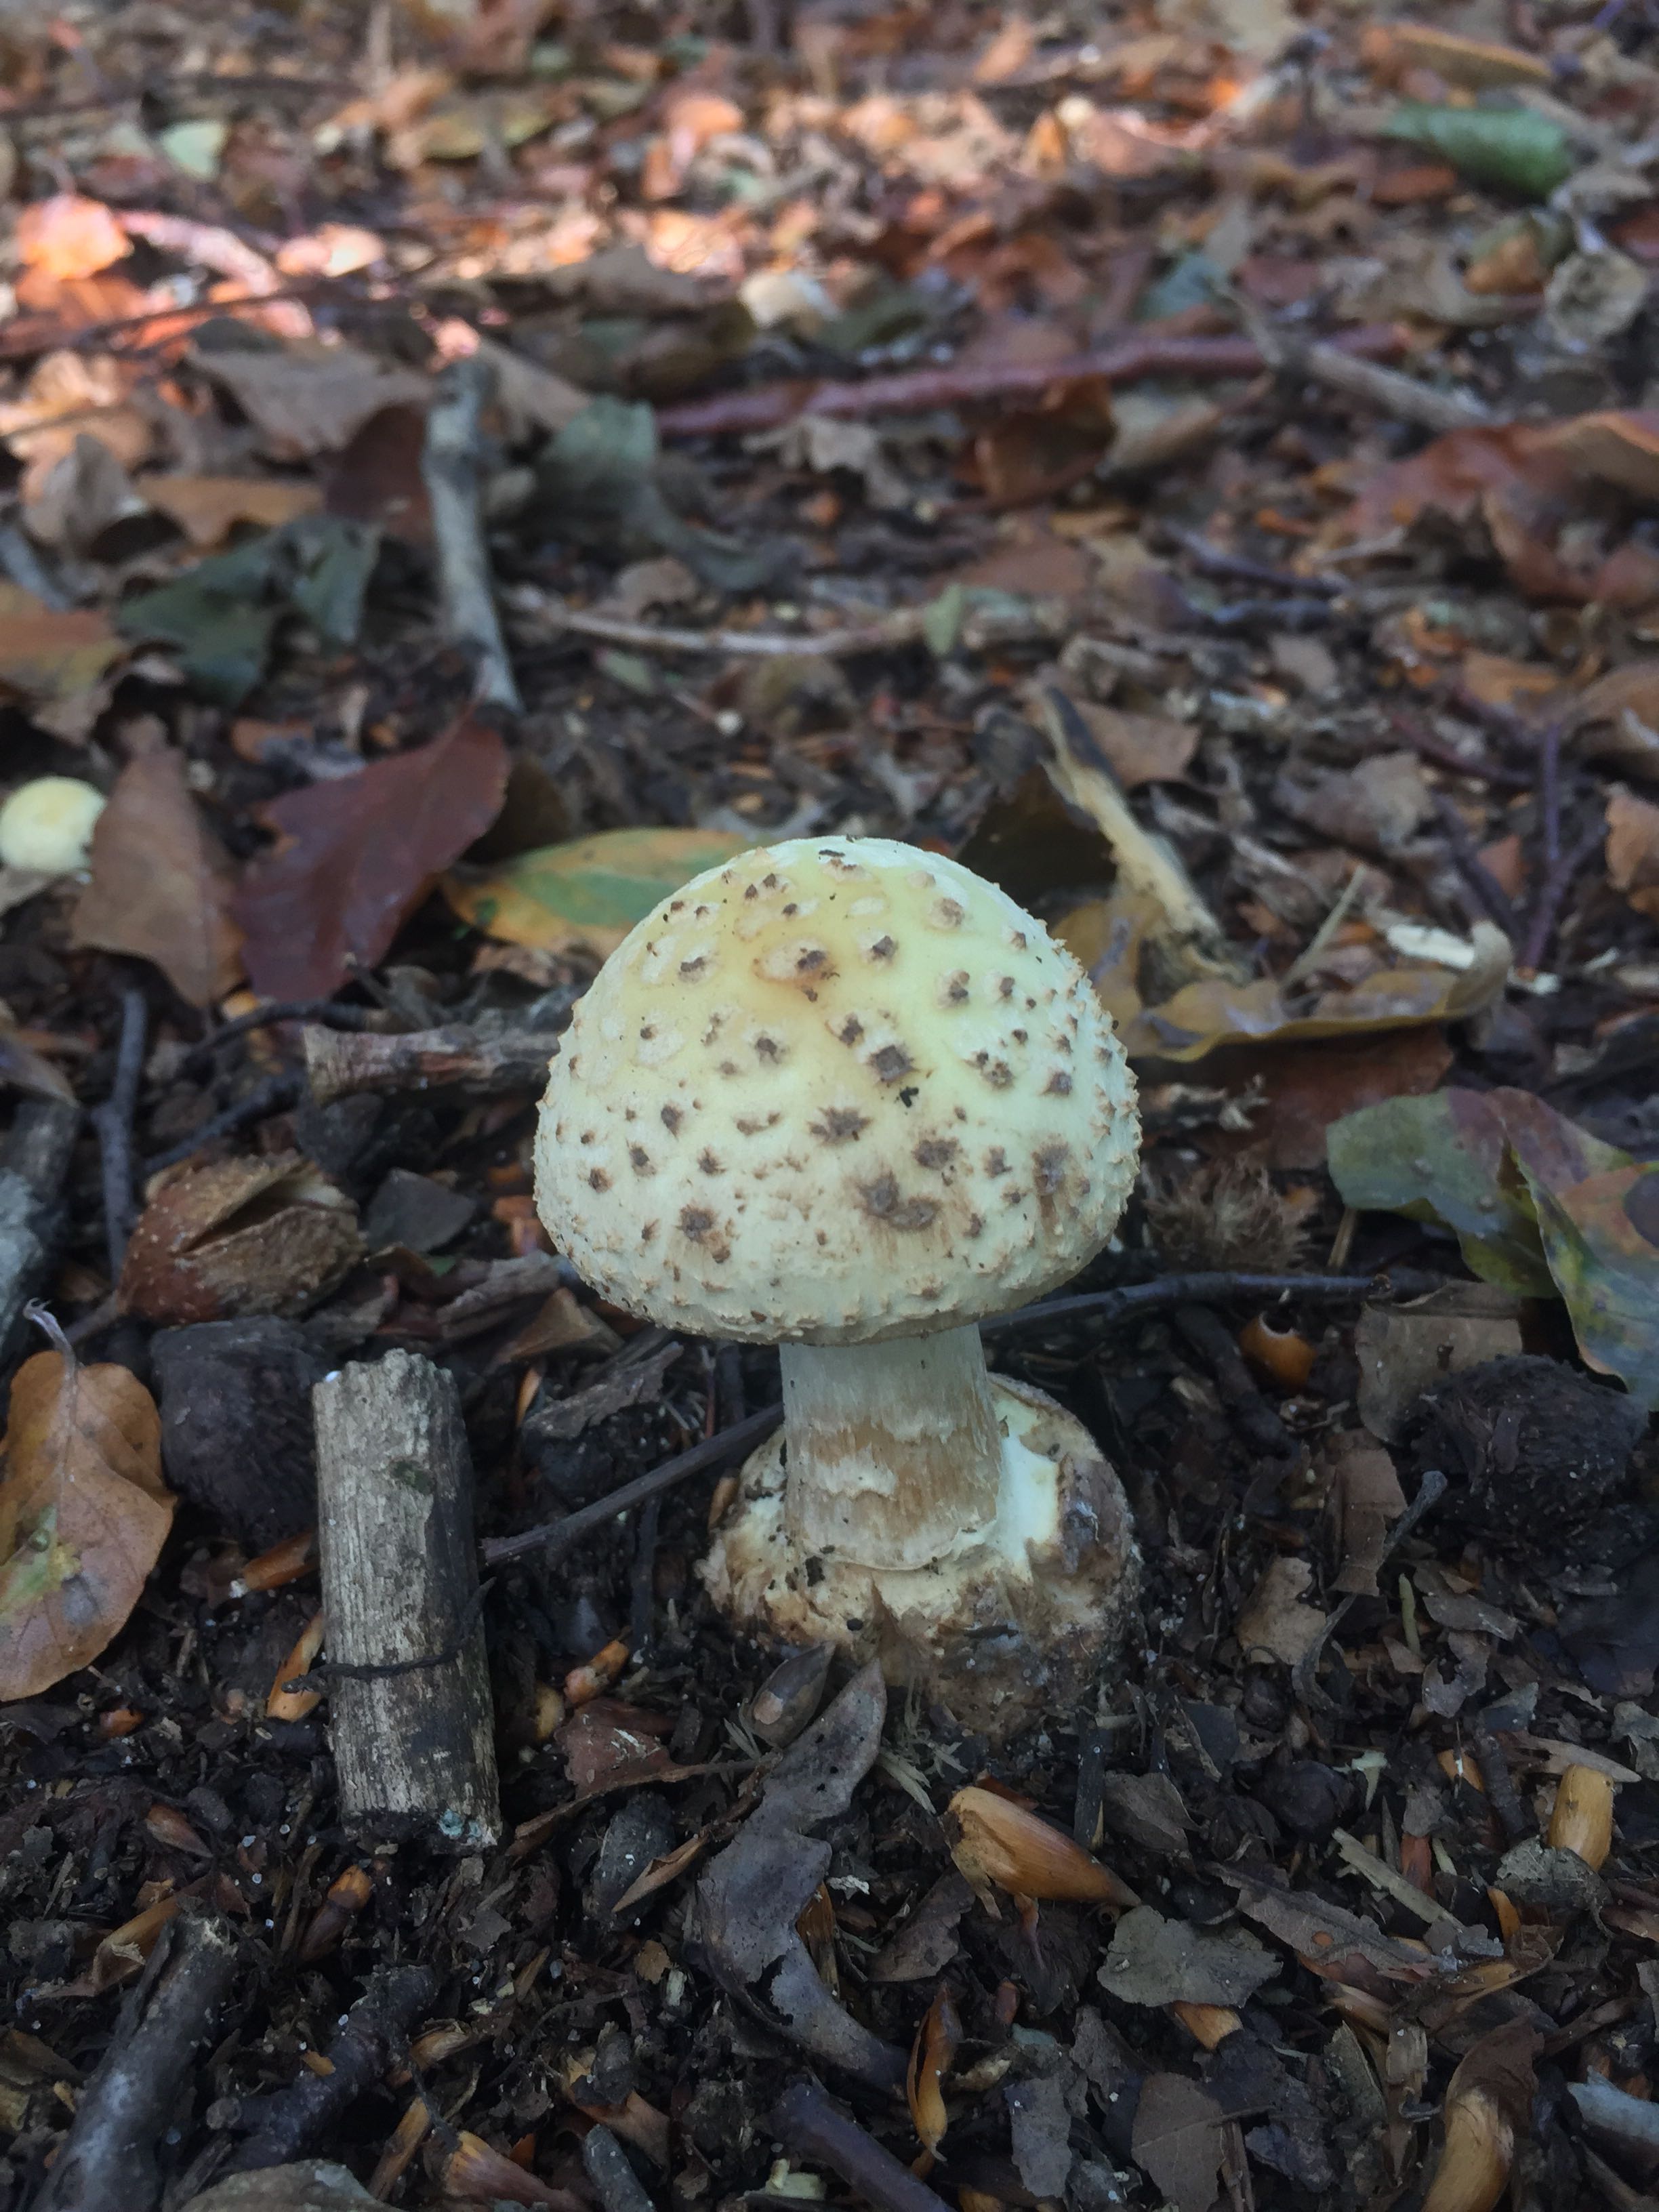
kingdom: Fungi
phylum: Basidiomycota
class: Agaricomycetes
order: Agaricales
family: Amanitaceae
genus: Amanita
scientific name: Amanita citrina
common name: kugleknoldet fluesvamp
